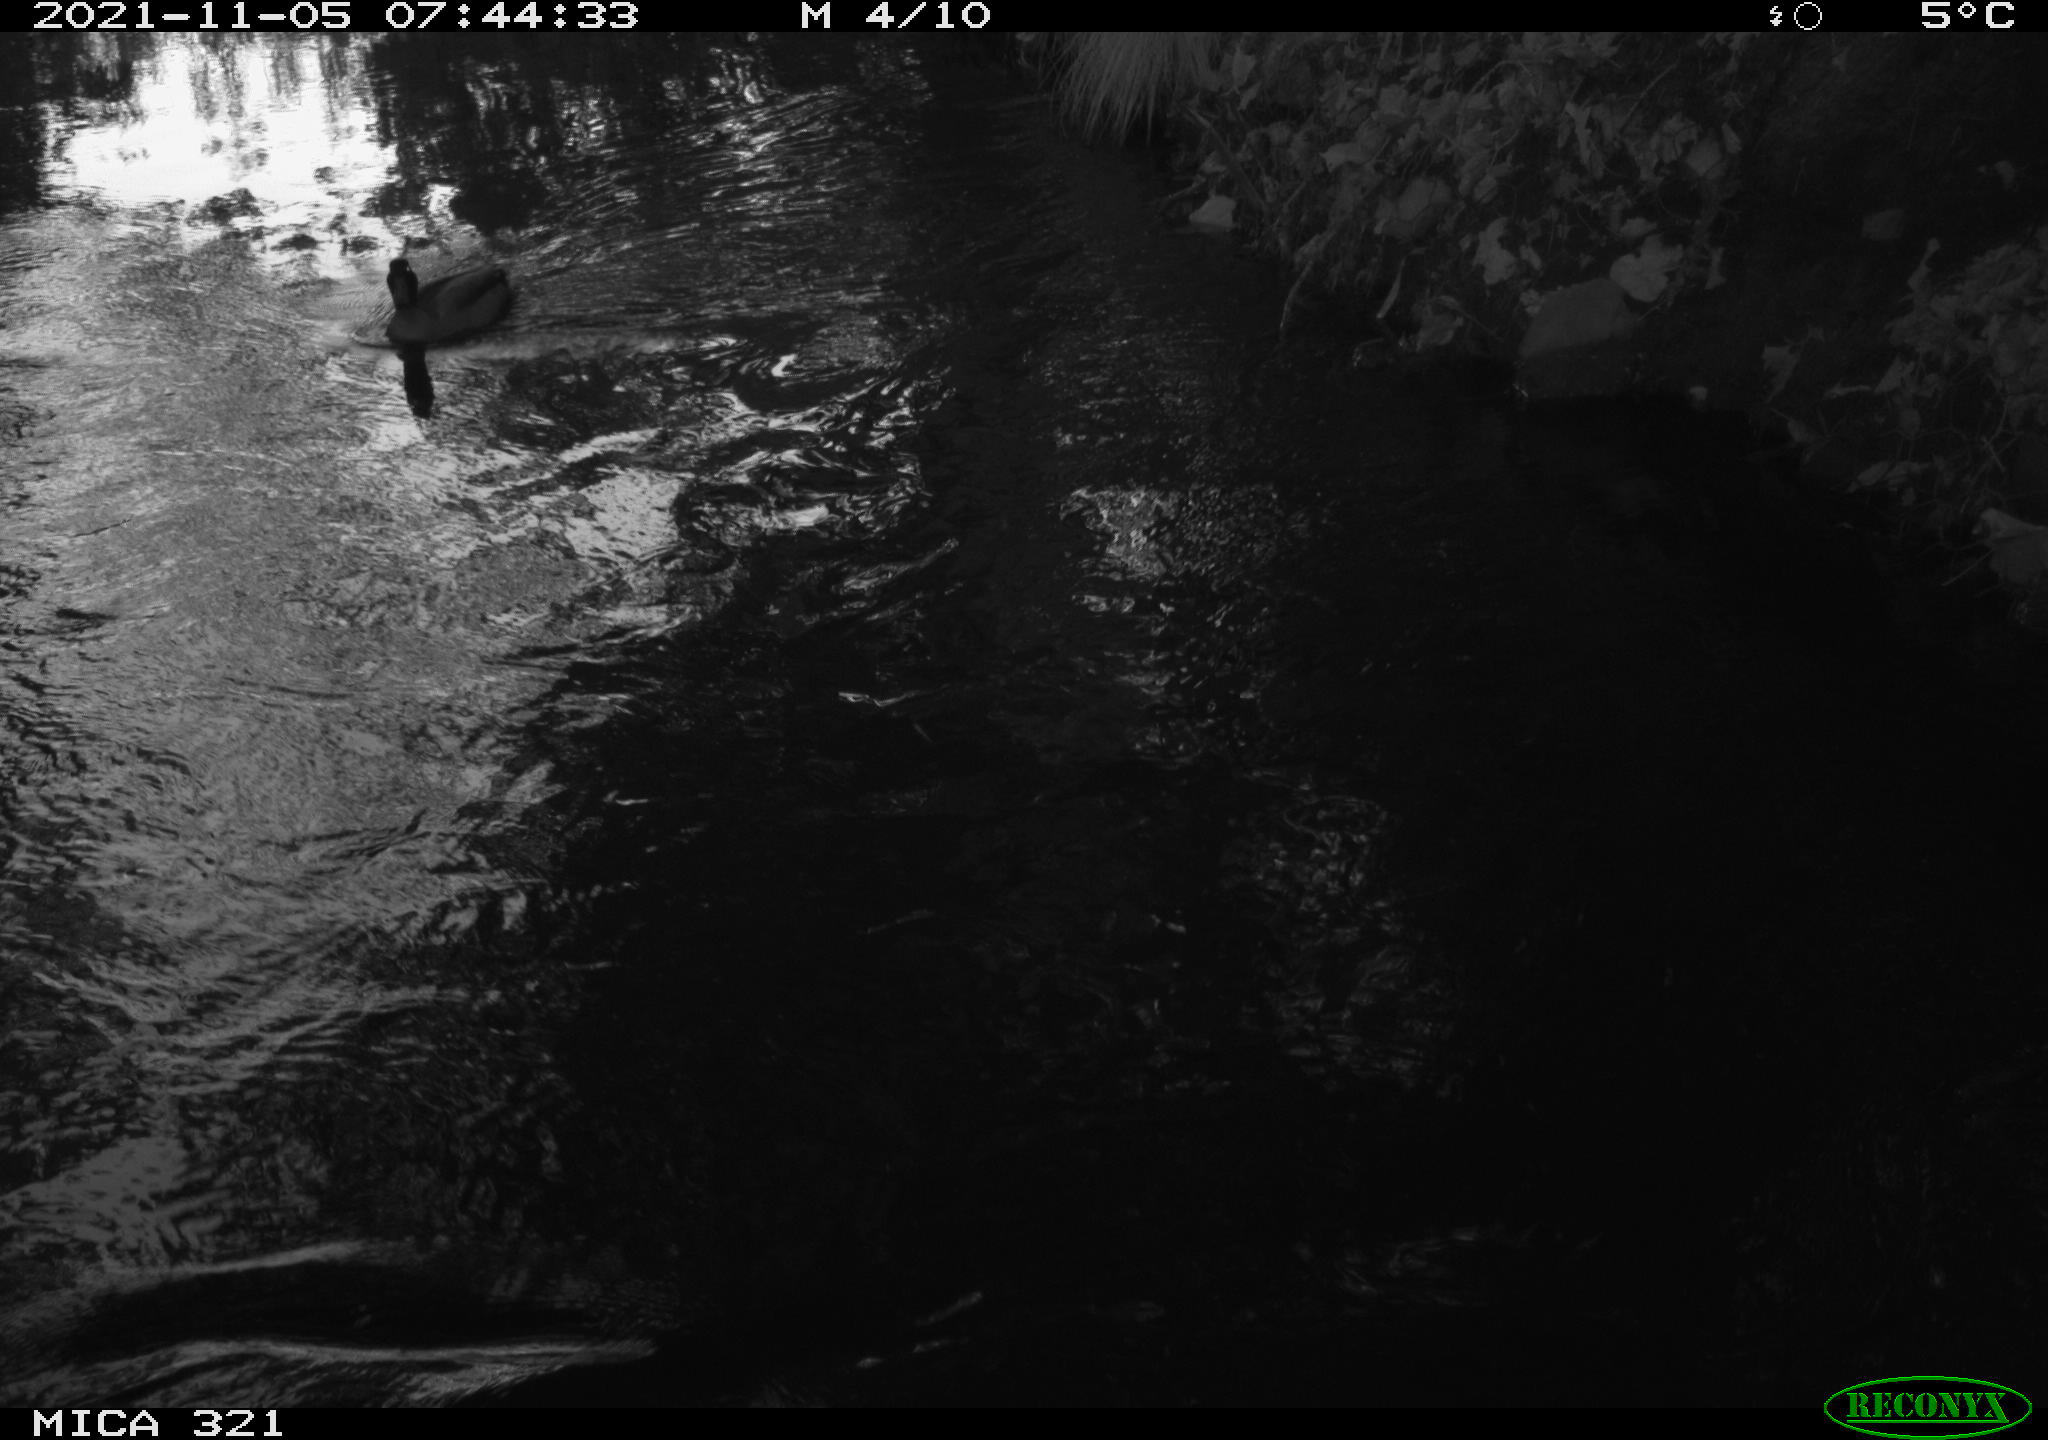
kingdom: Animalia
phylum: Chordata
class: Aves
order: Anseriformes
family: Anatidae
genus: Anas
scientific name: Anas platyrhynchos
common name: Mallard
